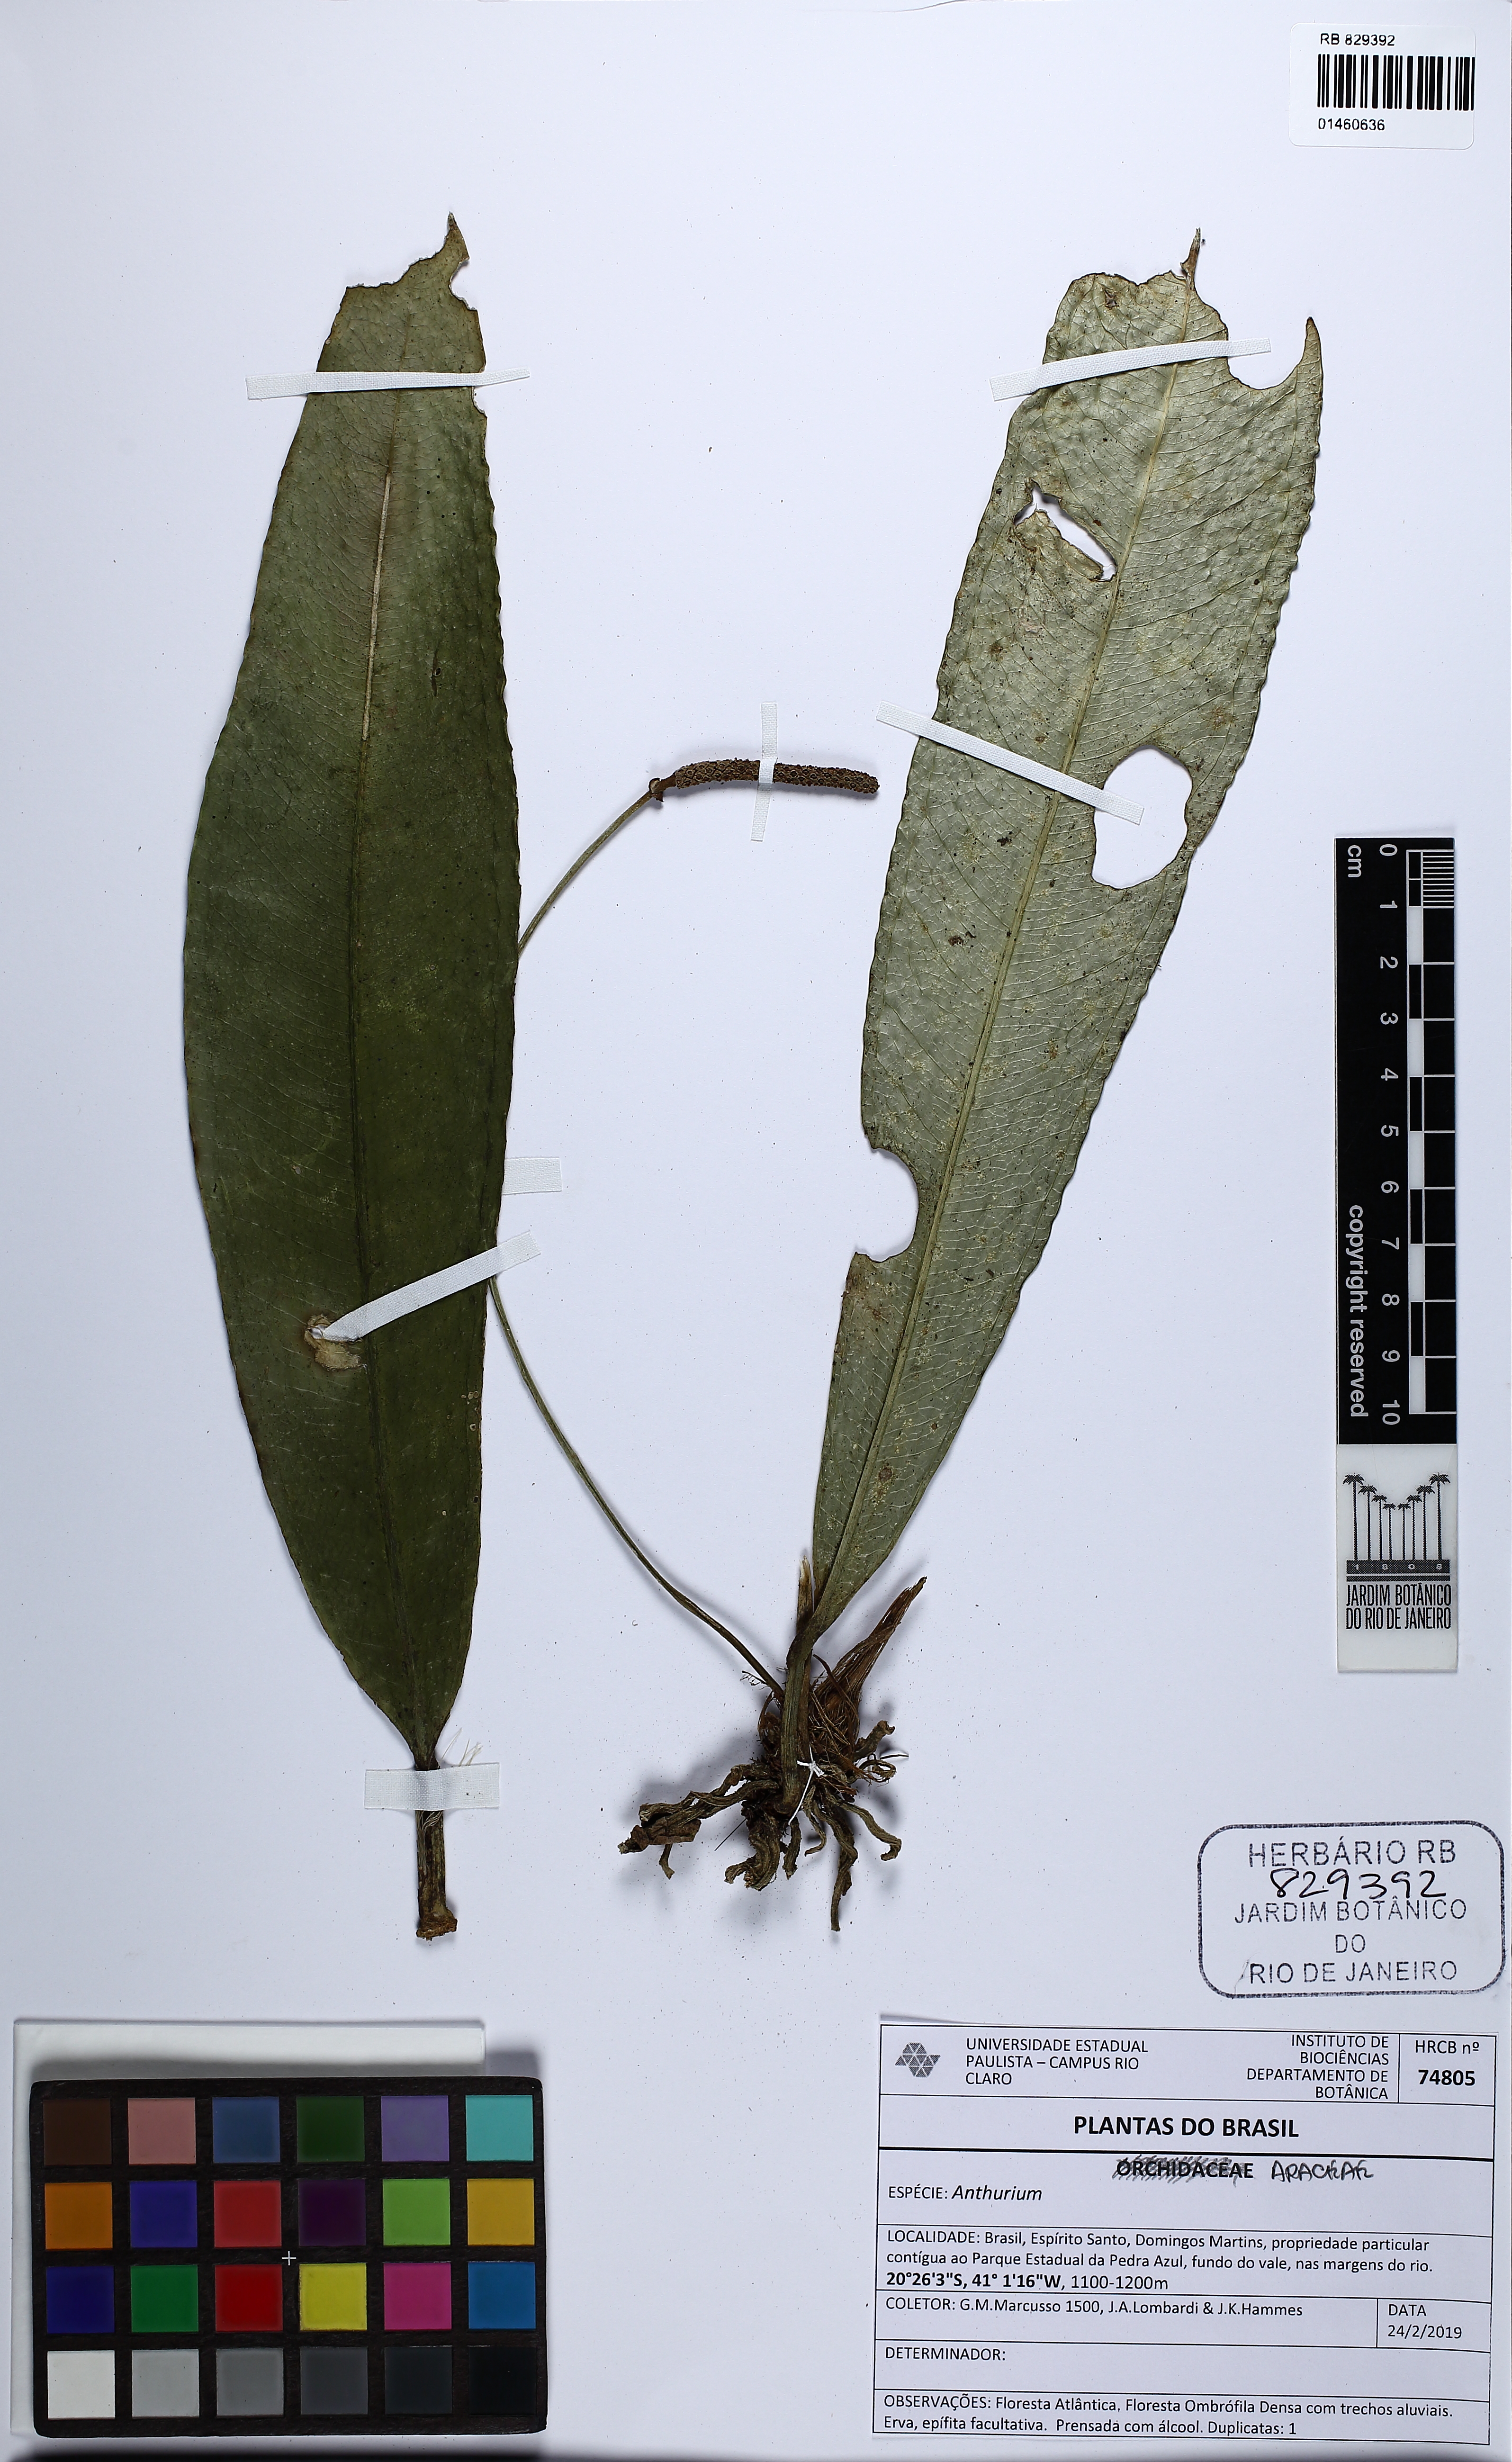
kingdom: Plantae
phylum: Tracheophyta
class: Liliopsida
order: Alismatales
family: Araceae
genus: Anthurium
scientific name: Anthurium
